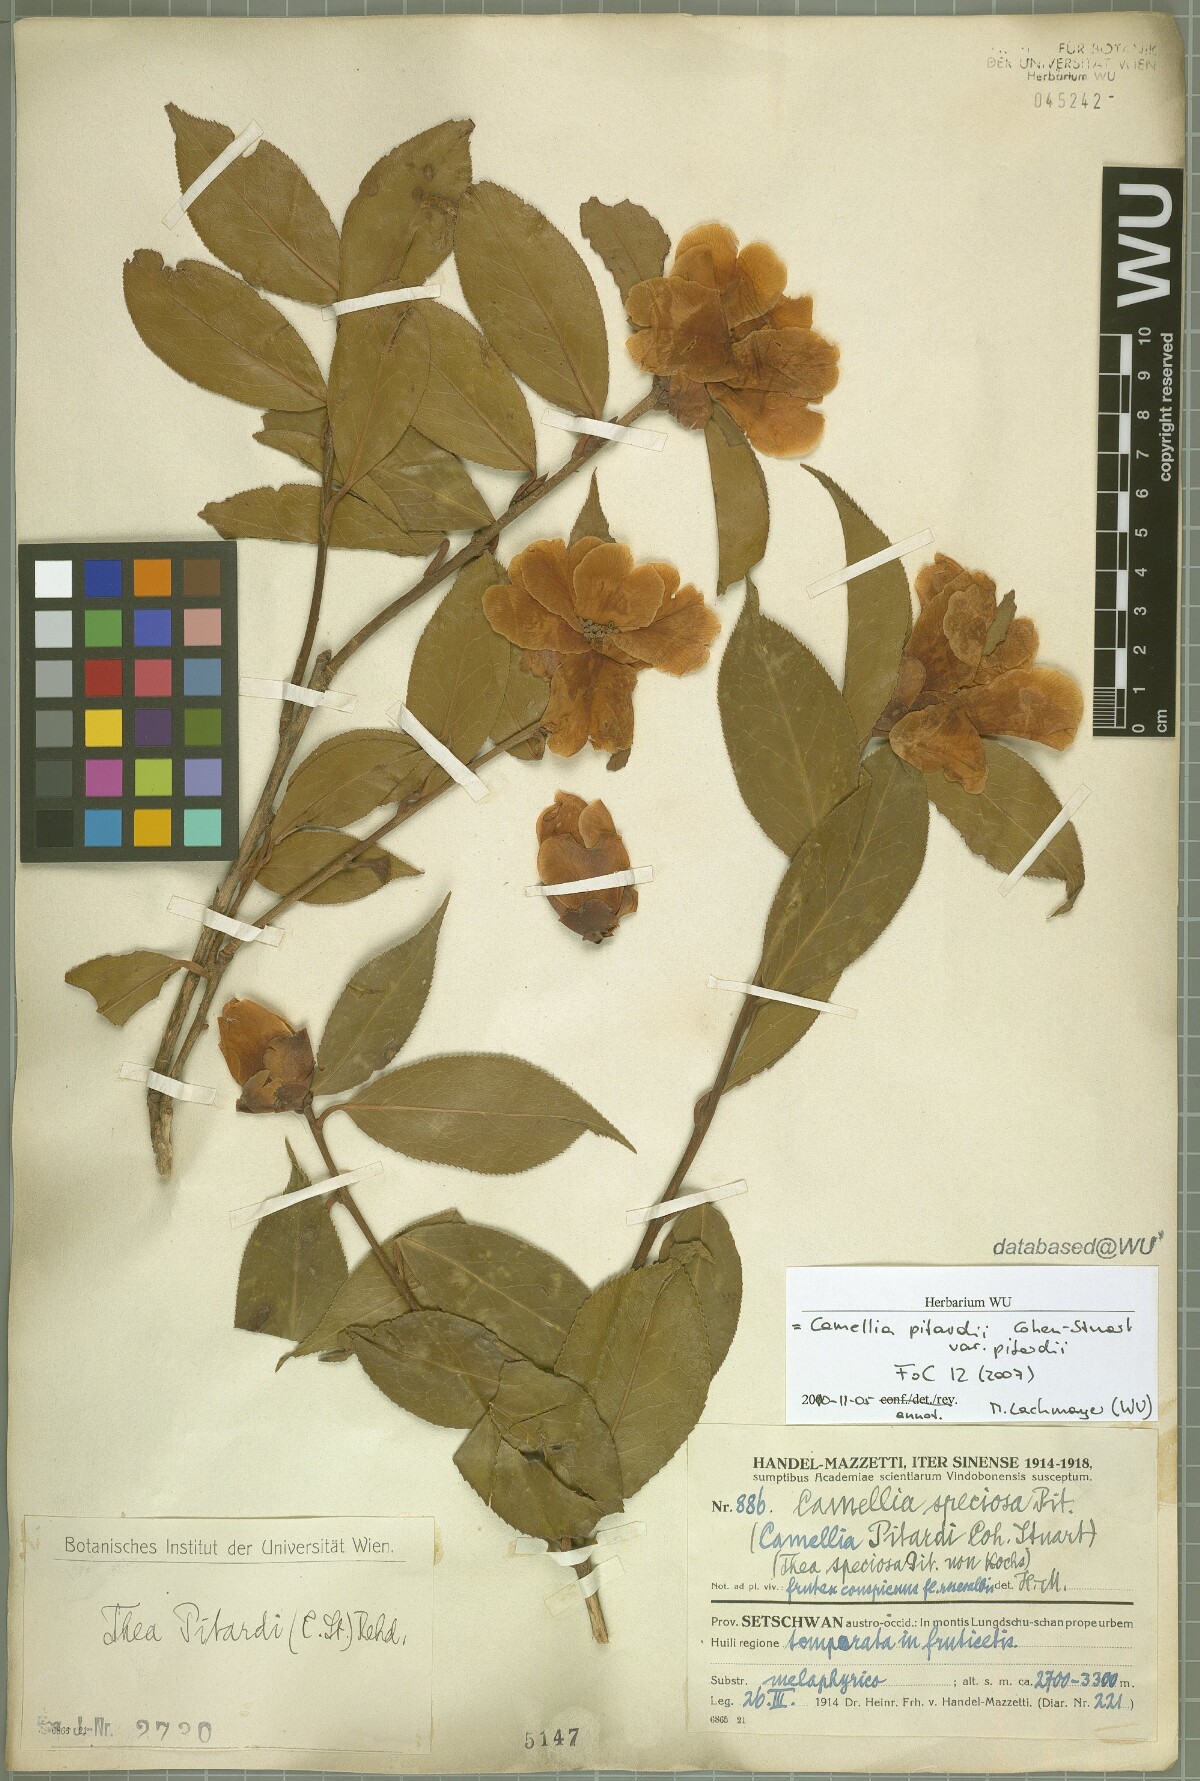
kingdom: Plantae
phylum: Tracheophyta
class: Magnoliopsida
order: Ericales
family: Theaceae
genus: Camellia
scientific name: Camellia pitardii
